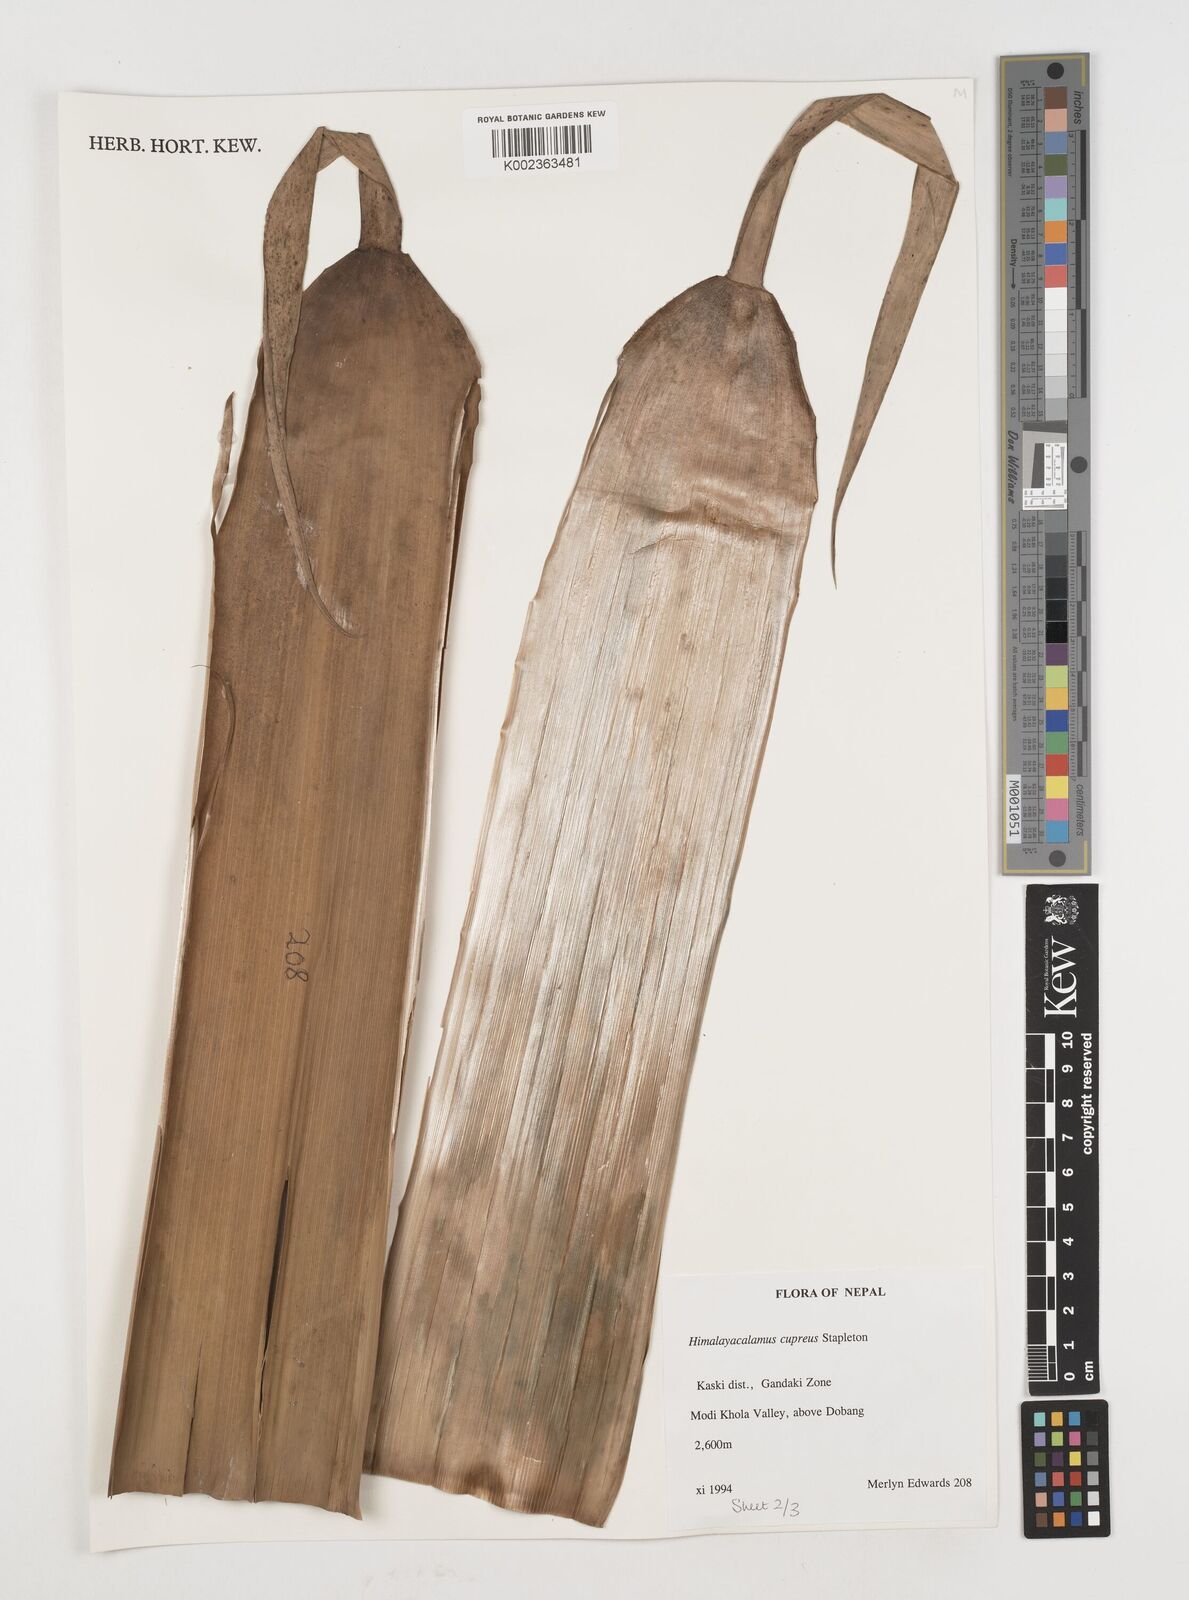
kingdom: Plantae
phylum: Tracheophyta
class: Liliopsida
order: Poales
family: Poaceae
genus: Himalayacalamus
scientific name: Himalayacalamus cupreus
